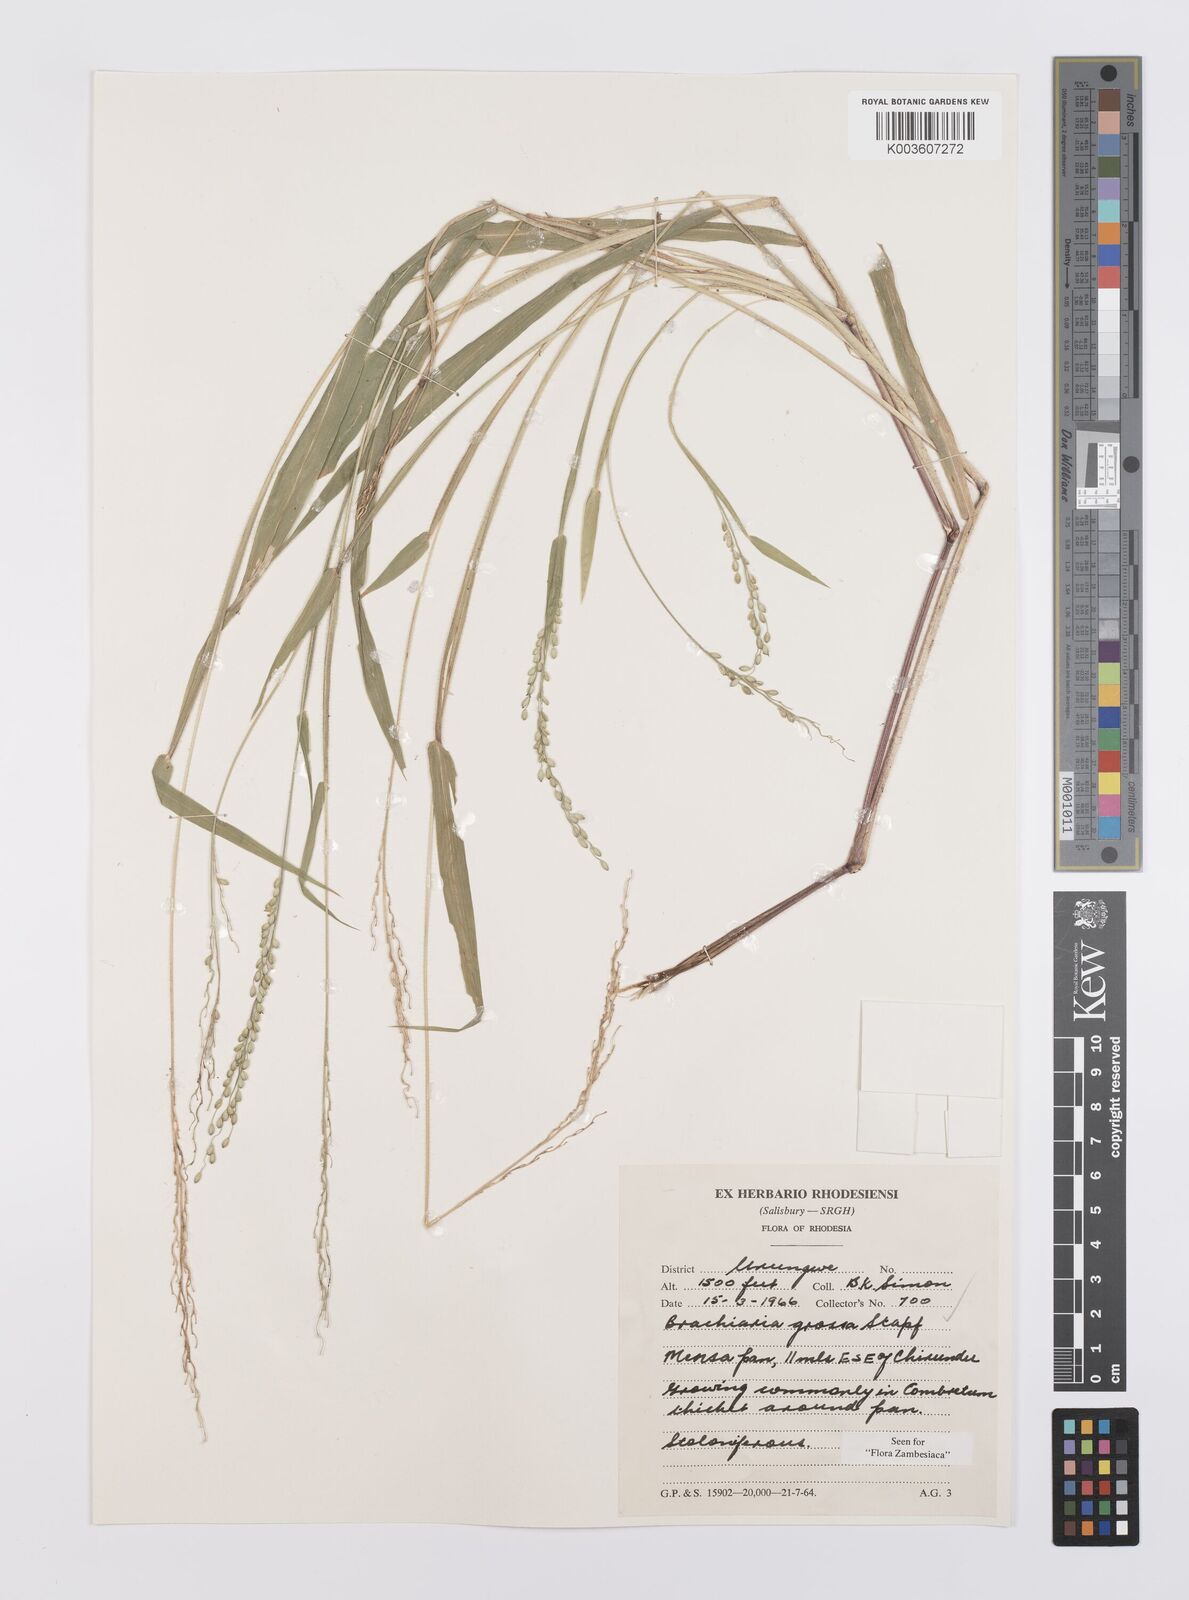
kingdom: Plantae
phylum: Tracheophyta
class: Liliopsida
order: Poales
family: Poaceae
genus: Urochloa
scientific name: Urochloa Brachiaria grossa
